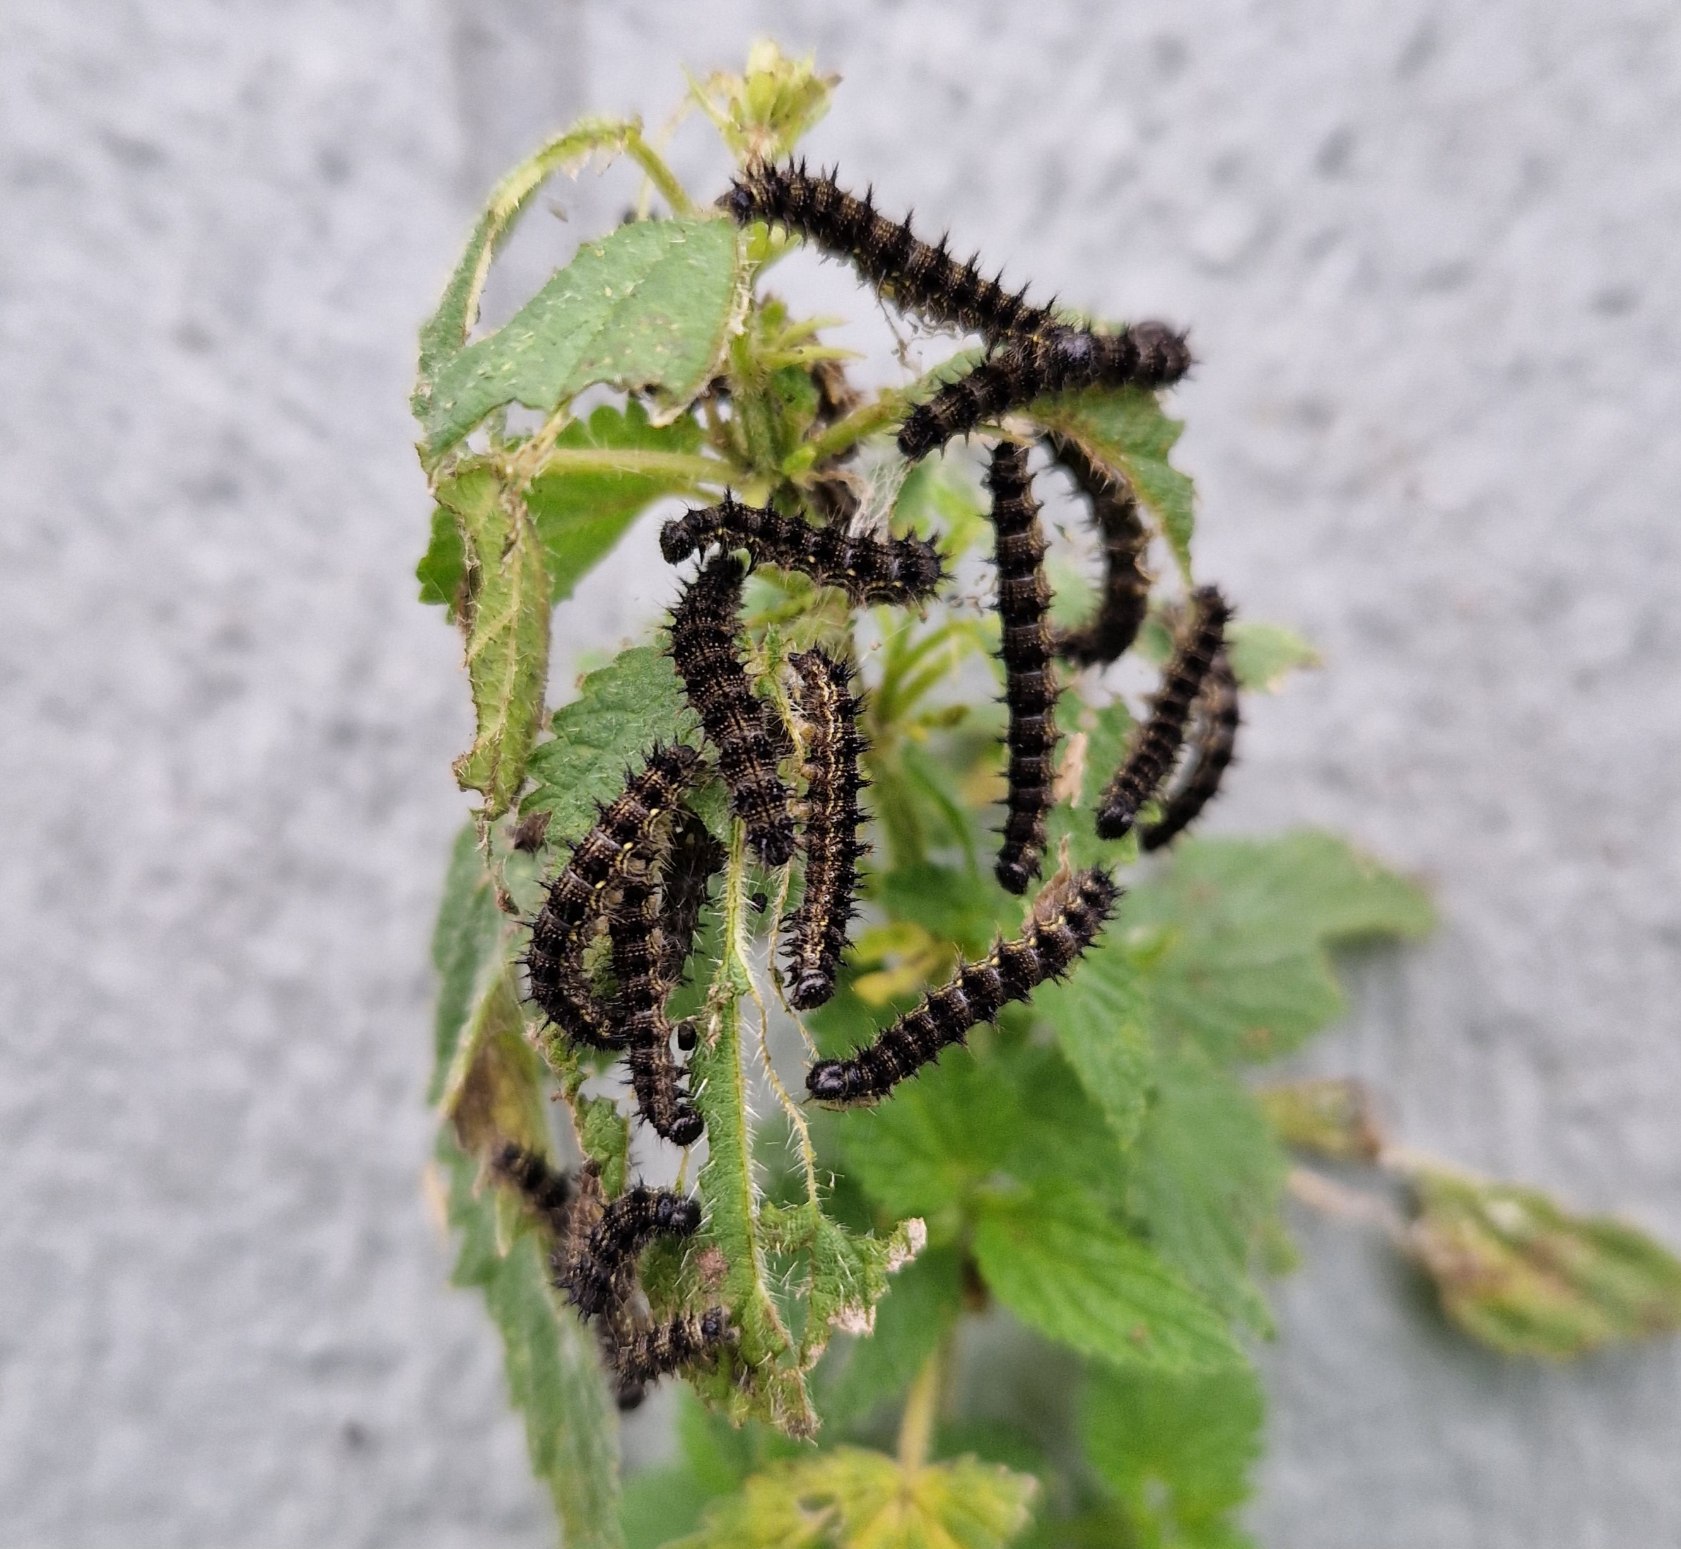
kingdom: Animalia
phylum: Arthropoda
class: Insecta
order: Lepidoptera
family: Nymphalidae
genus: Aglais
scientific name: Aglais io
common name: Dagpåfugleøje
